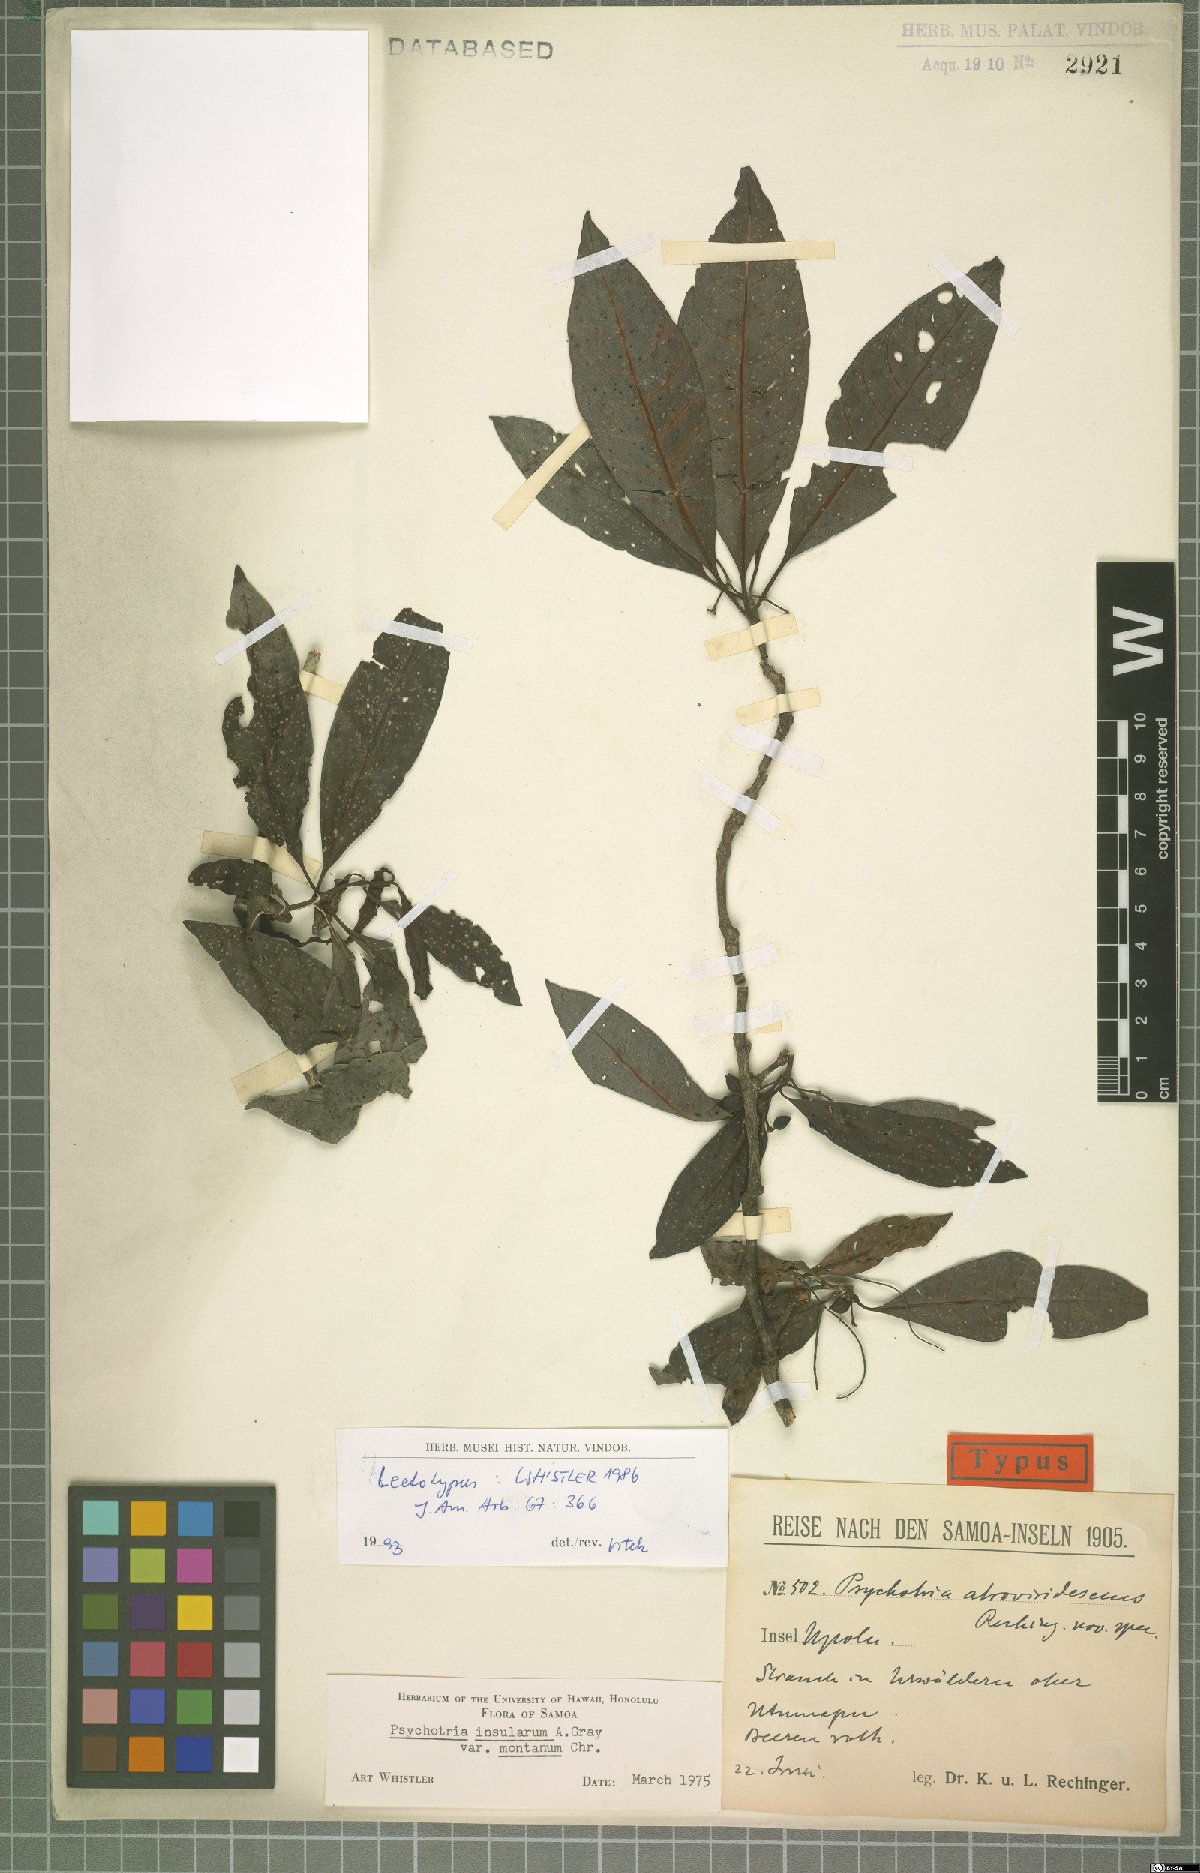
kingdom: Plantae
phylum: Tracheophyta
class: Magnoliopsida
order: Gentianales
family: Rubiaceae
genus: Psychotria
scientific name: Psychotria insularum
